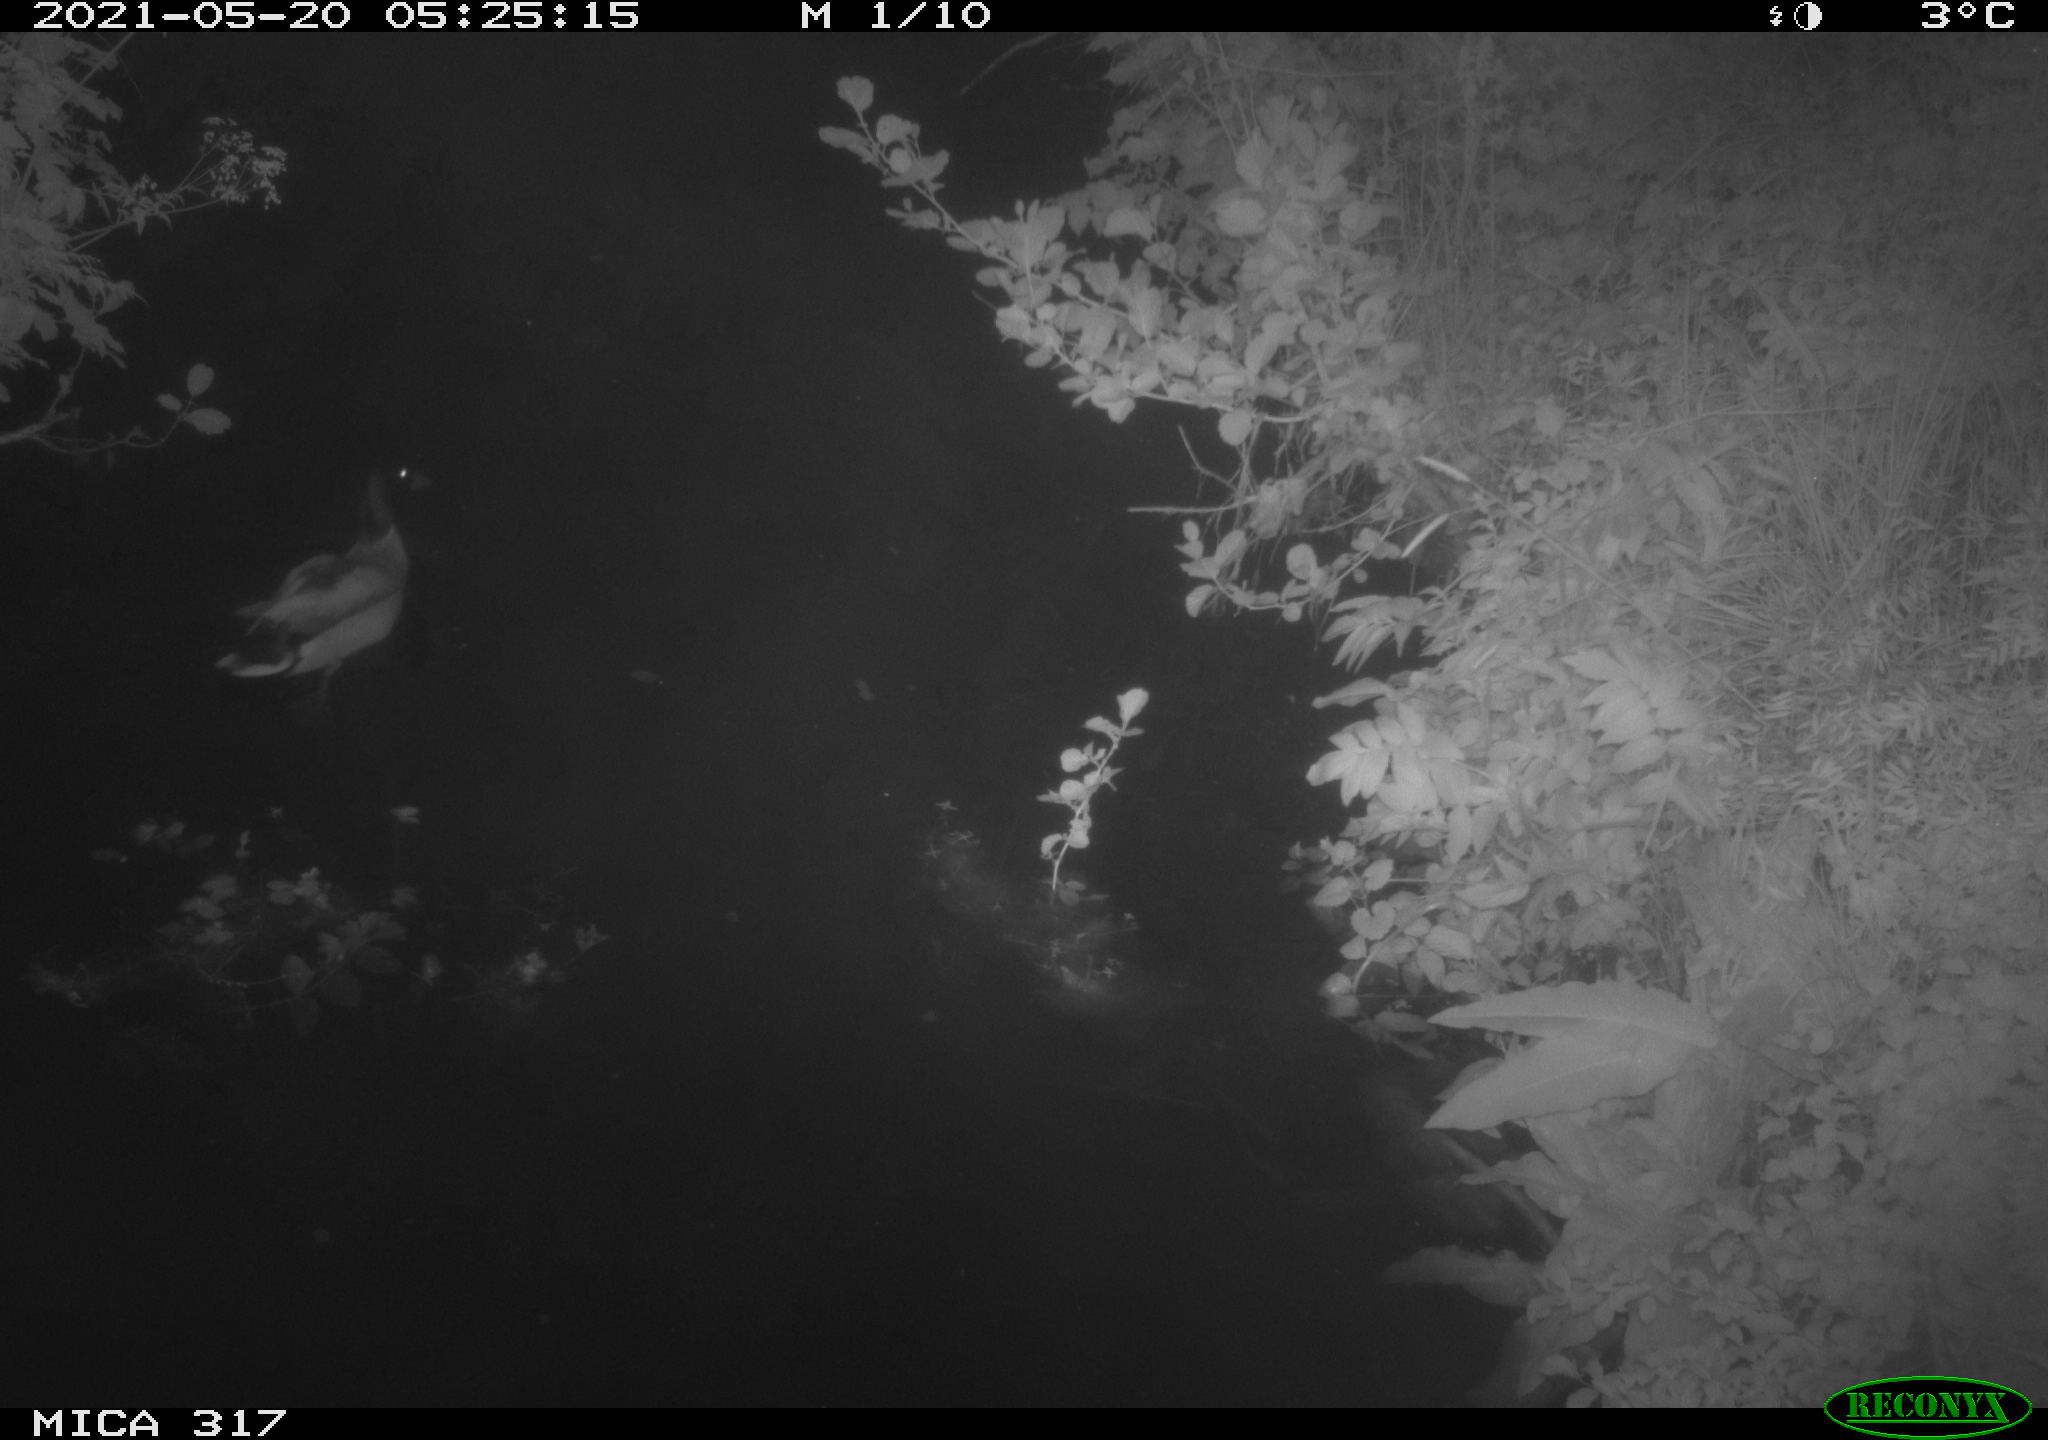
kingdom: Animalia
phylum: Chordata
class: Aves
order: Anseriformes
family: Anatidae
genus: Anas
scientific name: Anas
